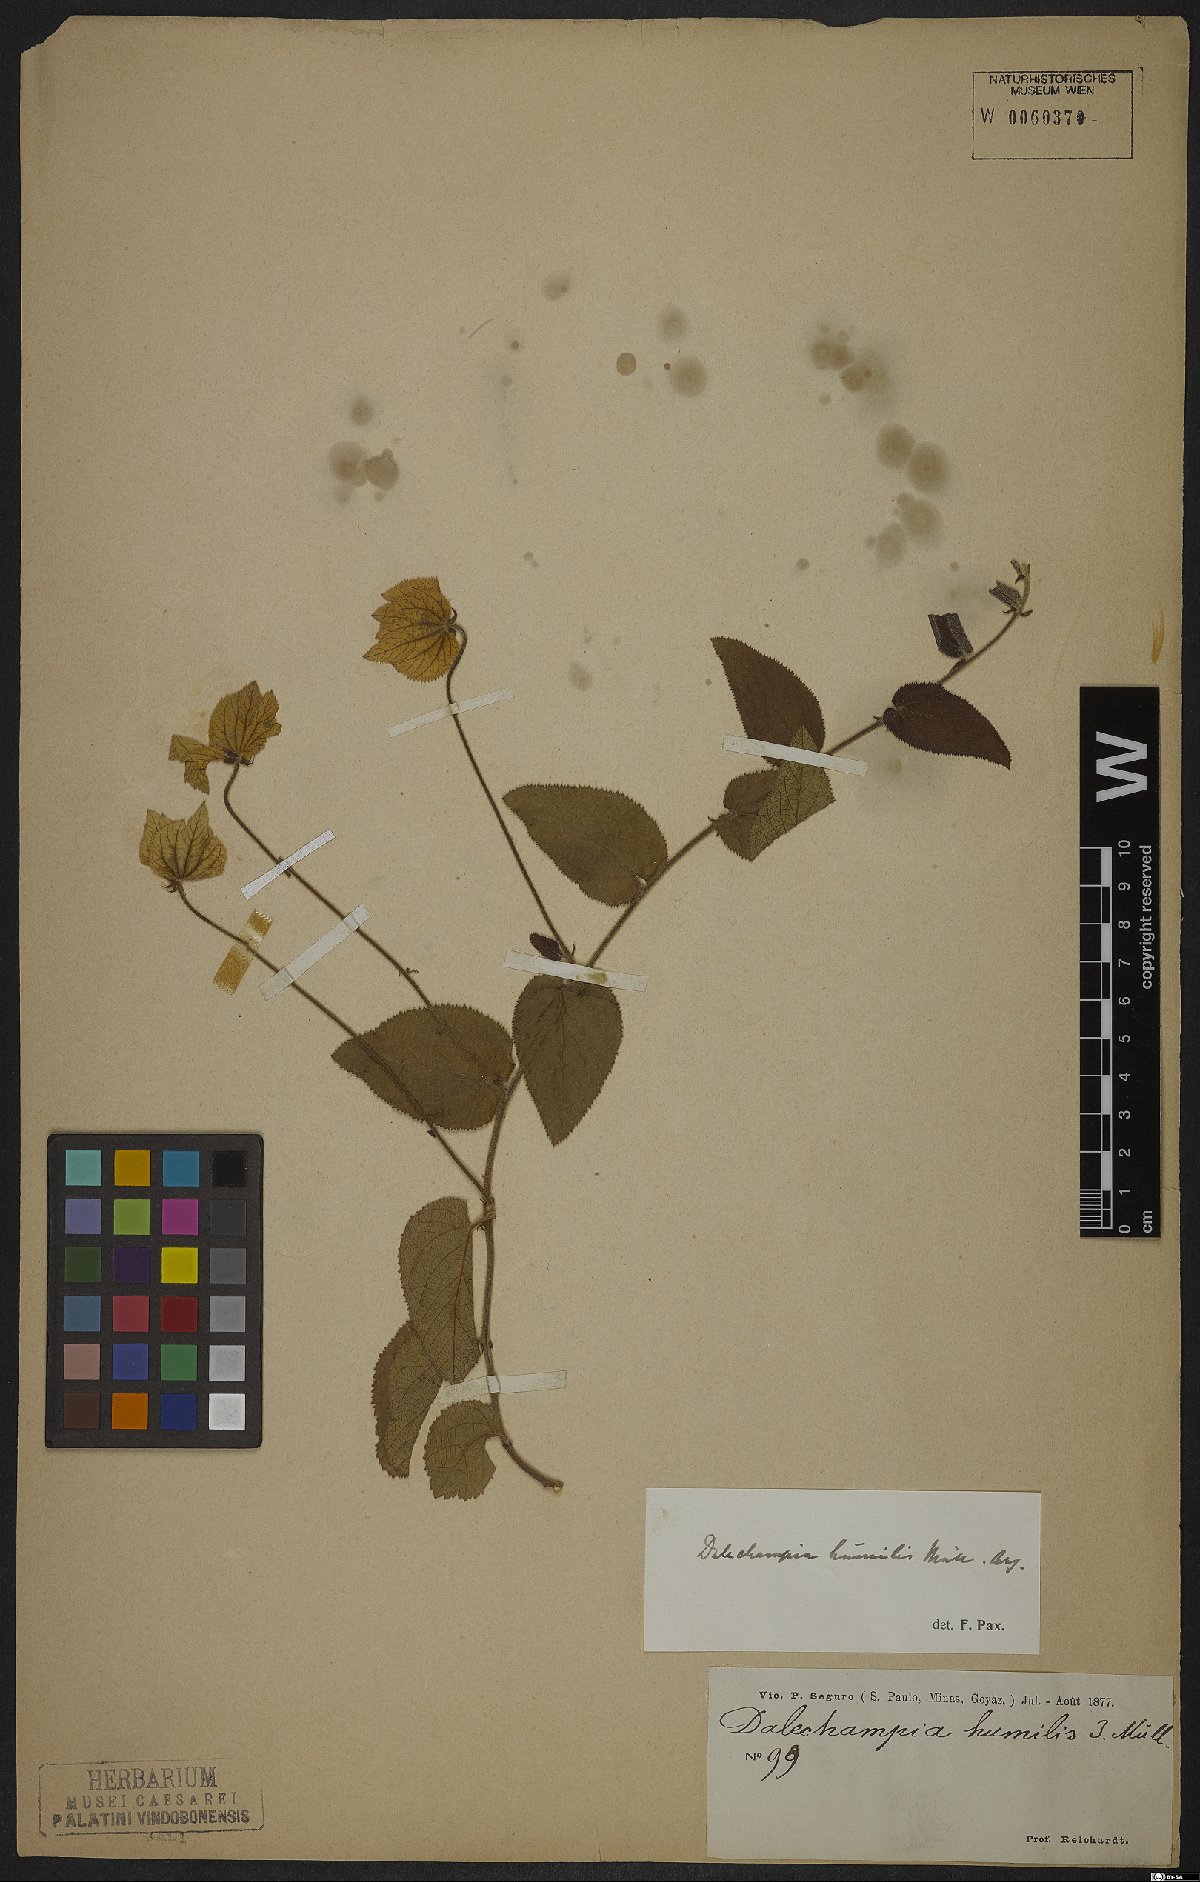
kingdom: Plantae
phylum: Tracheophyta
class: Magnoliopsida
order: Malpighiales
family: Euphorbiaceae
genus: Dalechampia
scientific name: Dalechampia humilis
